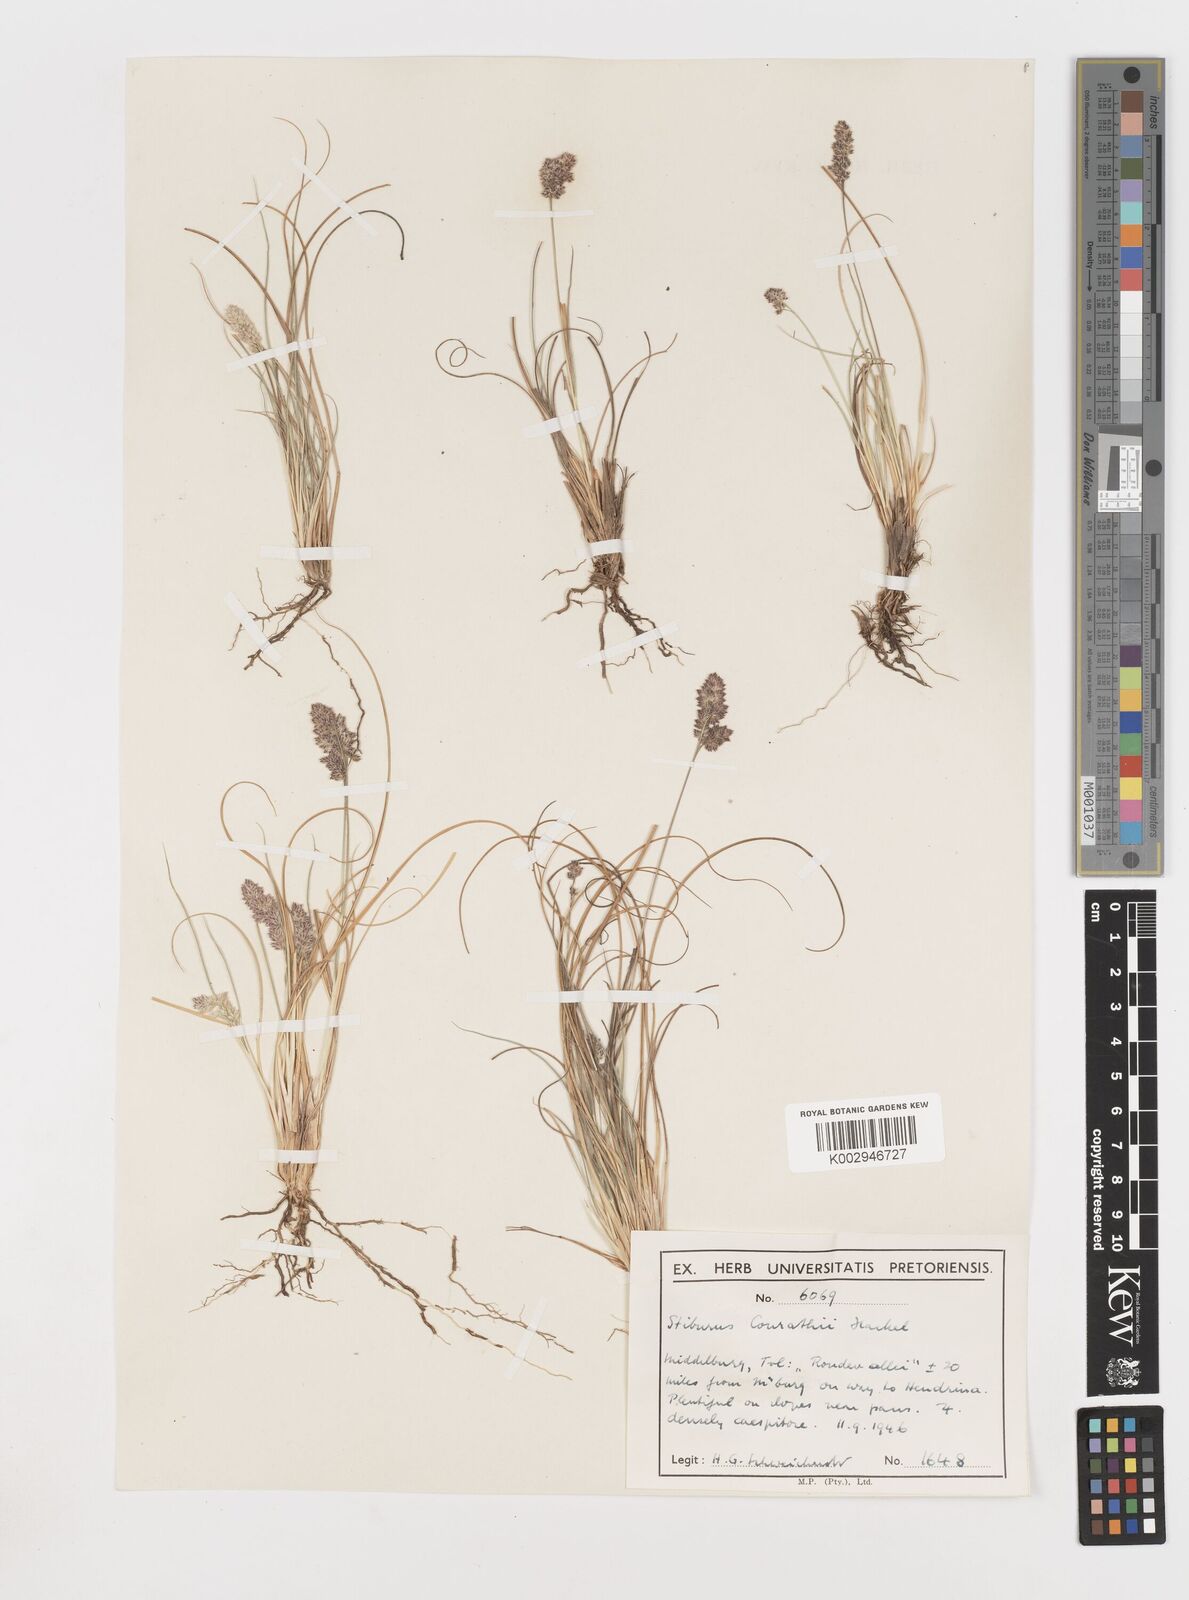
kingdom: Plantae
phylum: Tracheophyta
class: Liliopsida
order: Poales
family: Poaceae
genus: Stiburus
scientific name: Stiburus conrathii
